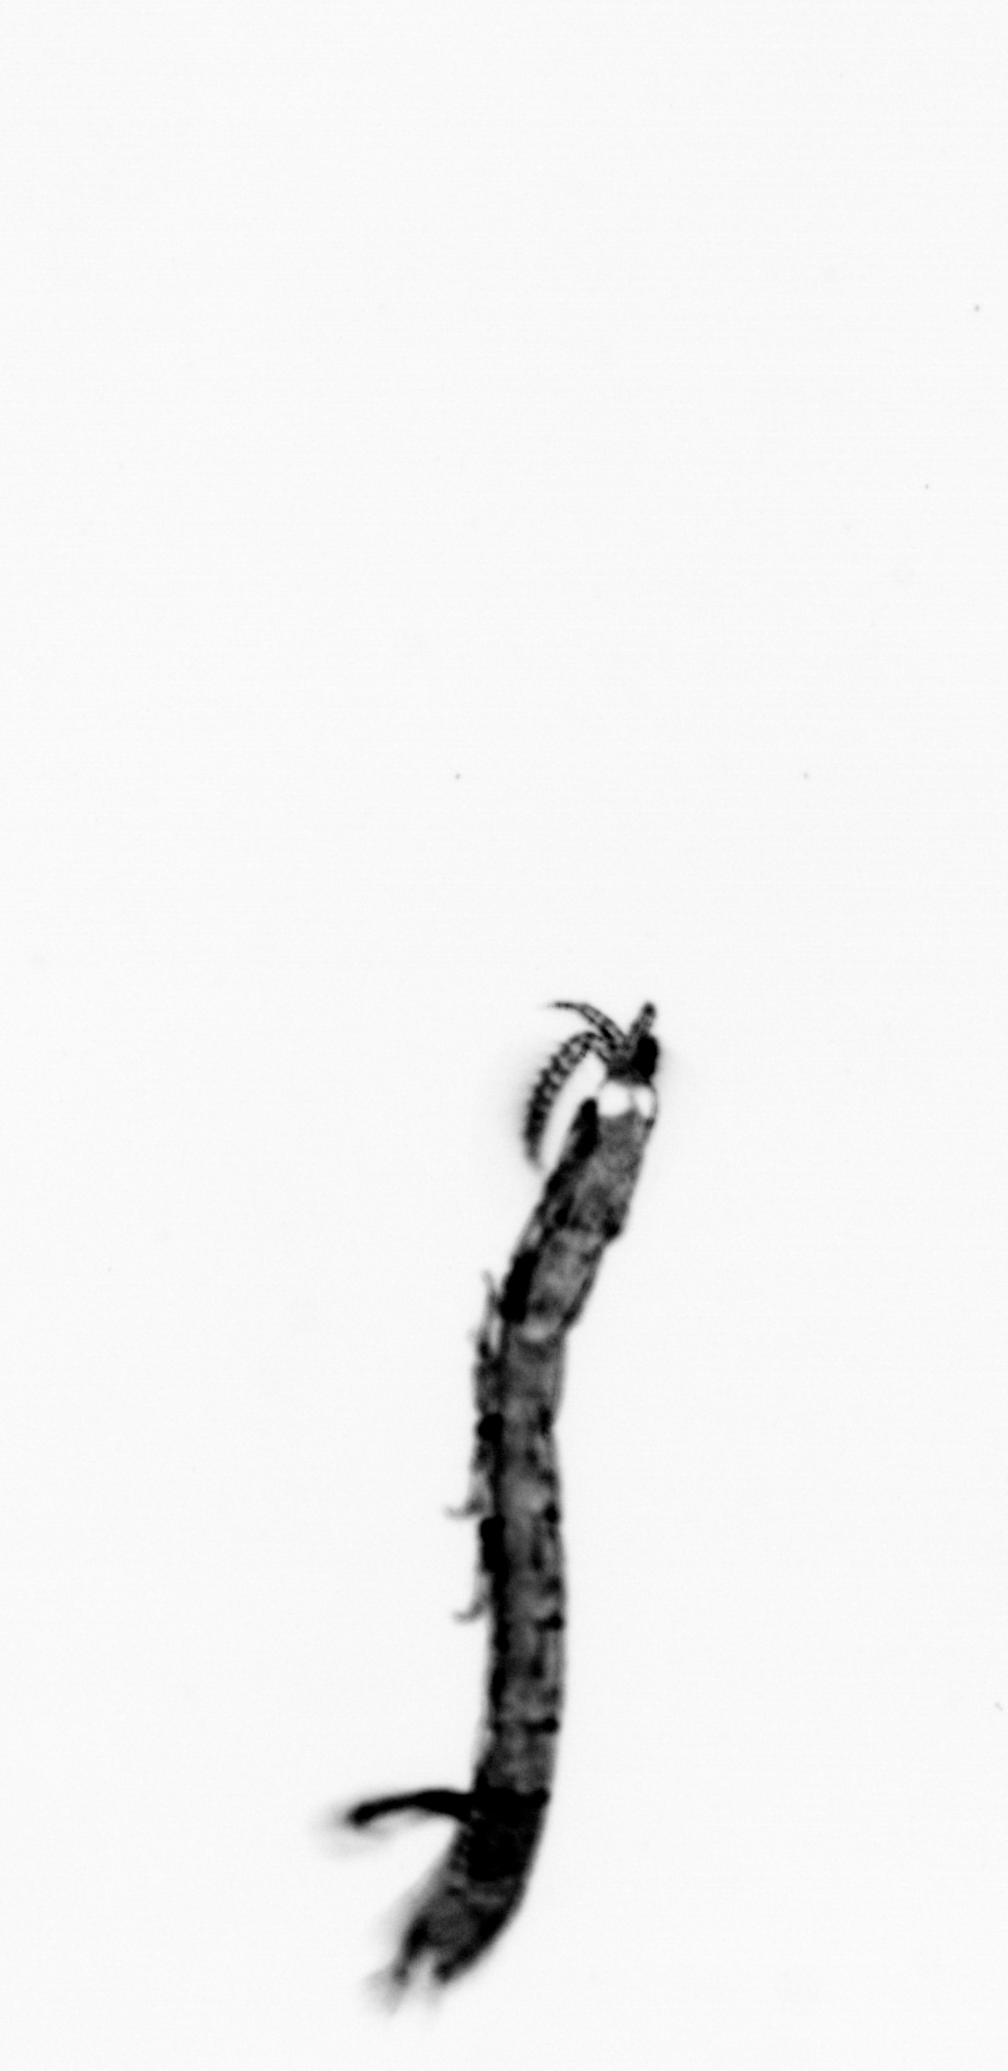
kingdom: Animalia
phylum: Annelida
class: Polychaeta
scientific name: Polychaeta
